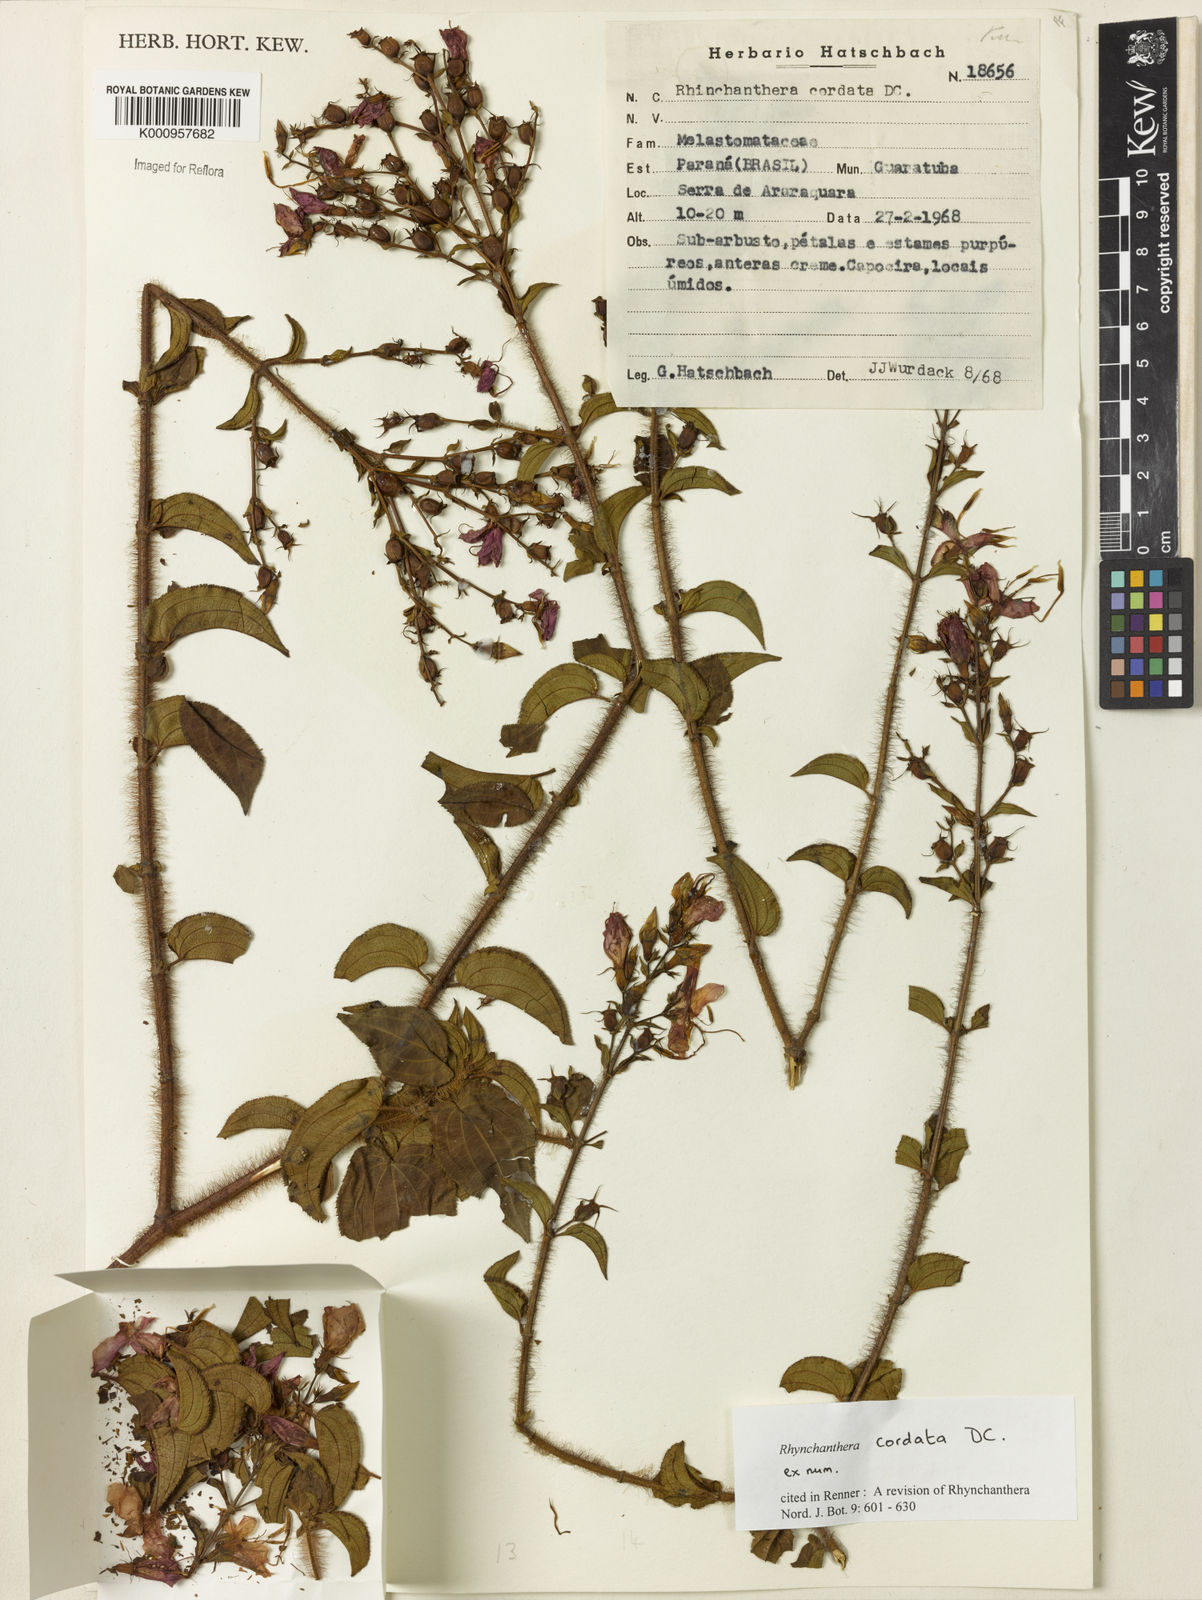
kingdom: Plantae
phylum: Tracheophyta
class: Magnoliopsida
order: Myrtales
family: Melastomataceae
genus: Rhynchanthera
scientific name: Rhynchanthera cordata
